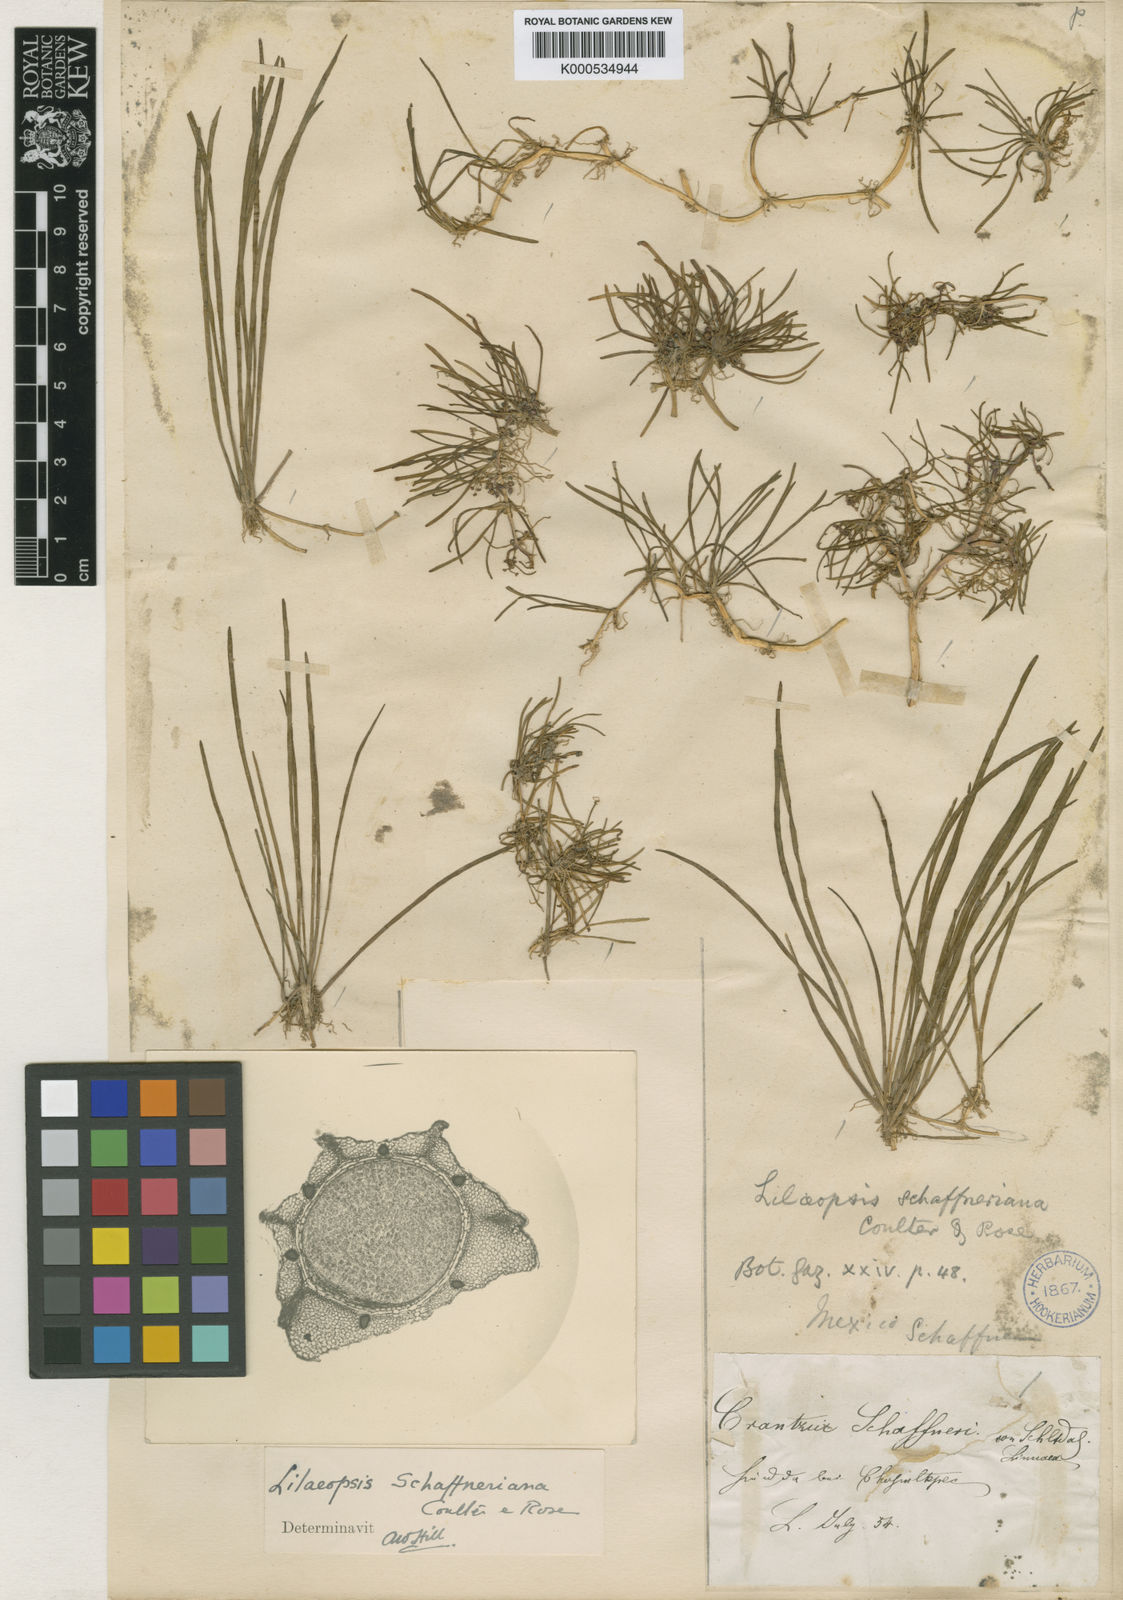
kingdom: Plantae
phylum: Tracheophyta
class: Magnoliopsida
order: Apiales
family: Apiaceae
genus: Lilaeopsis
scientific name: Lilaeopsis
